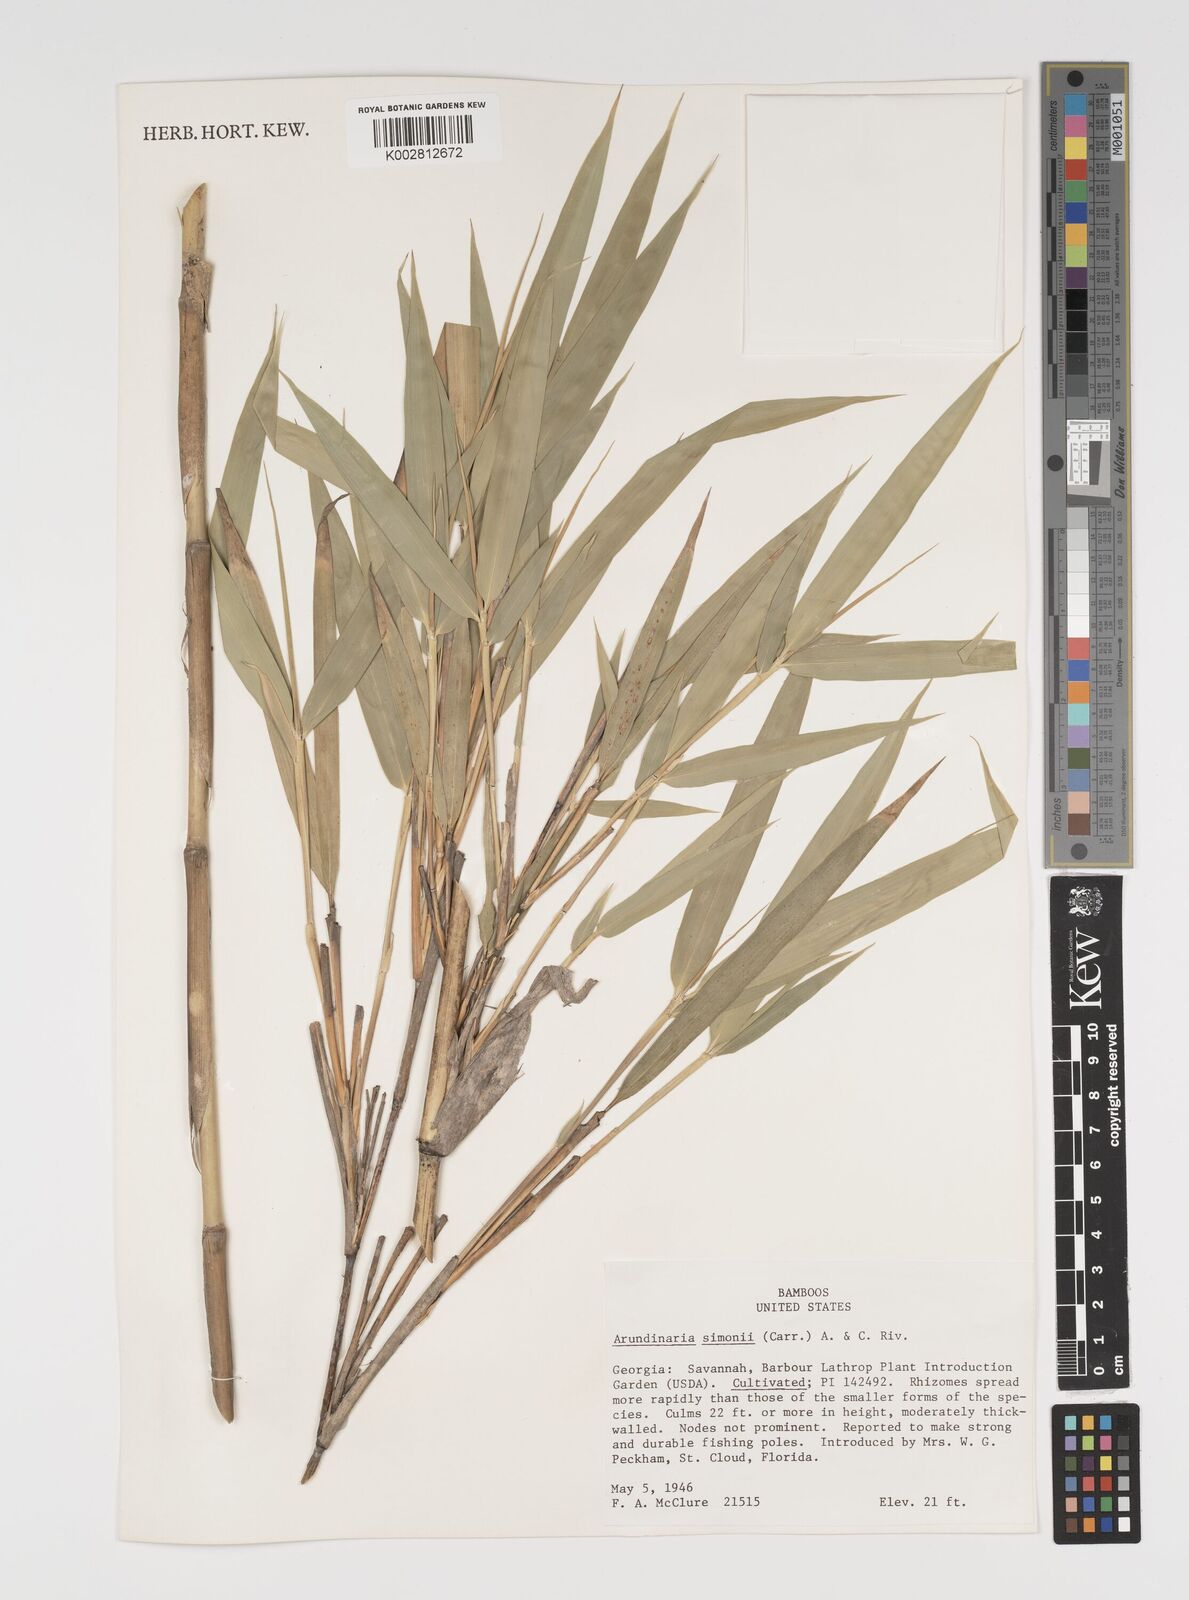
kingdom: Plantae
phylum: Tracheophyta
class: Liliopsida
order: Poales
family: Poaceae
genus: Pleioblastus
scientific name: Pleioblastus simonii
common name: Simon bamboo
